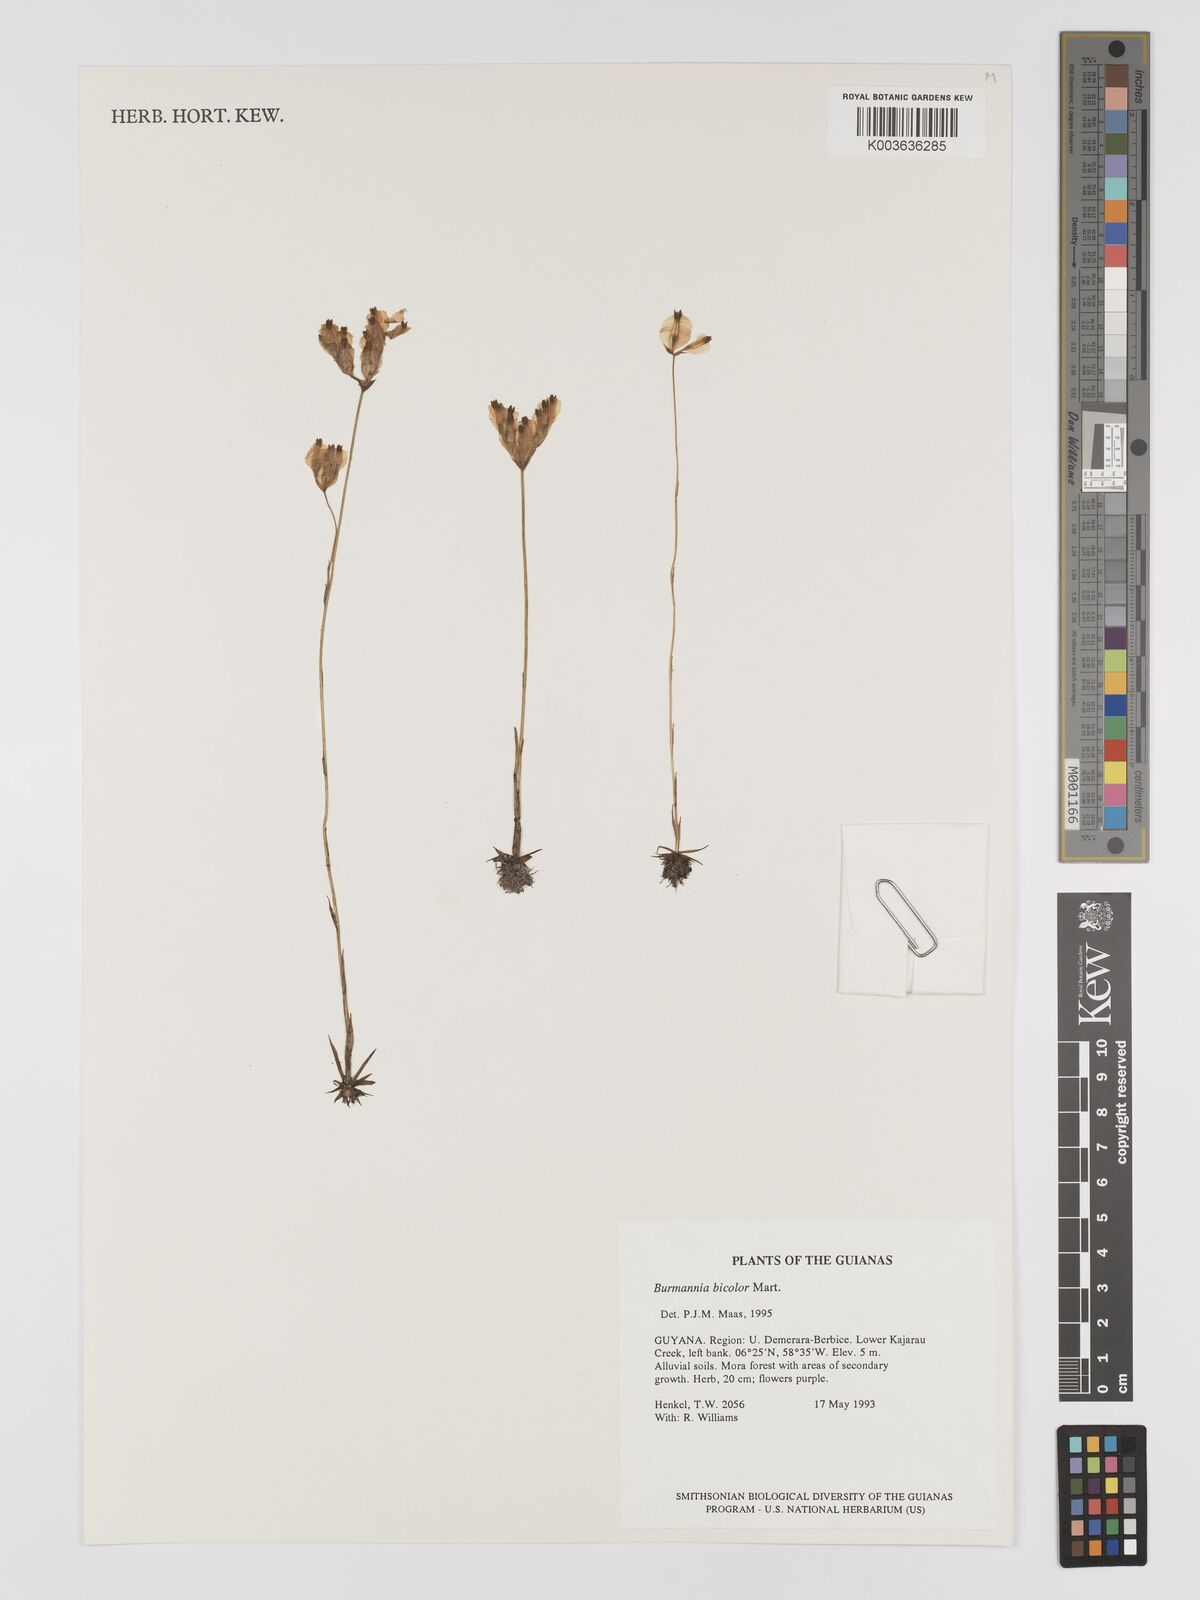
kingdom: Plantae
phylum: Tracheophyta
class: Liliopsida
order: Dioscoreales
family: Burmanniaceae
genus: Burmannia
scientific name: Burmannia bicolor
